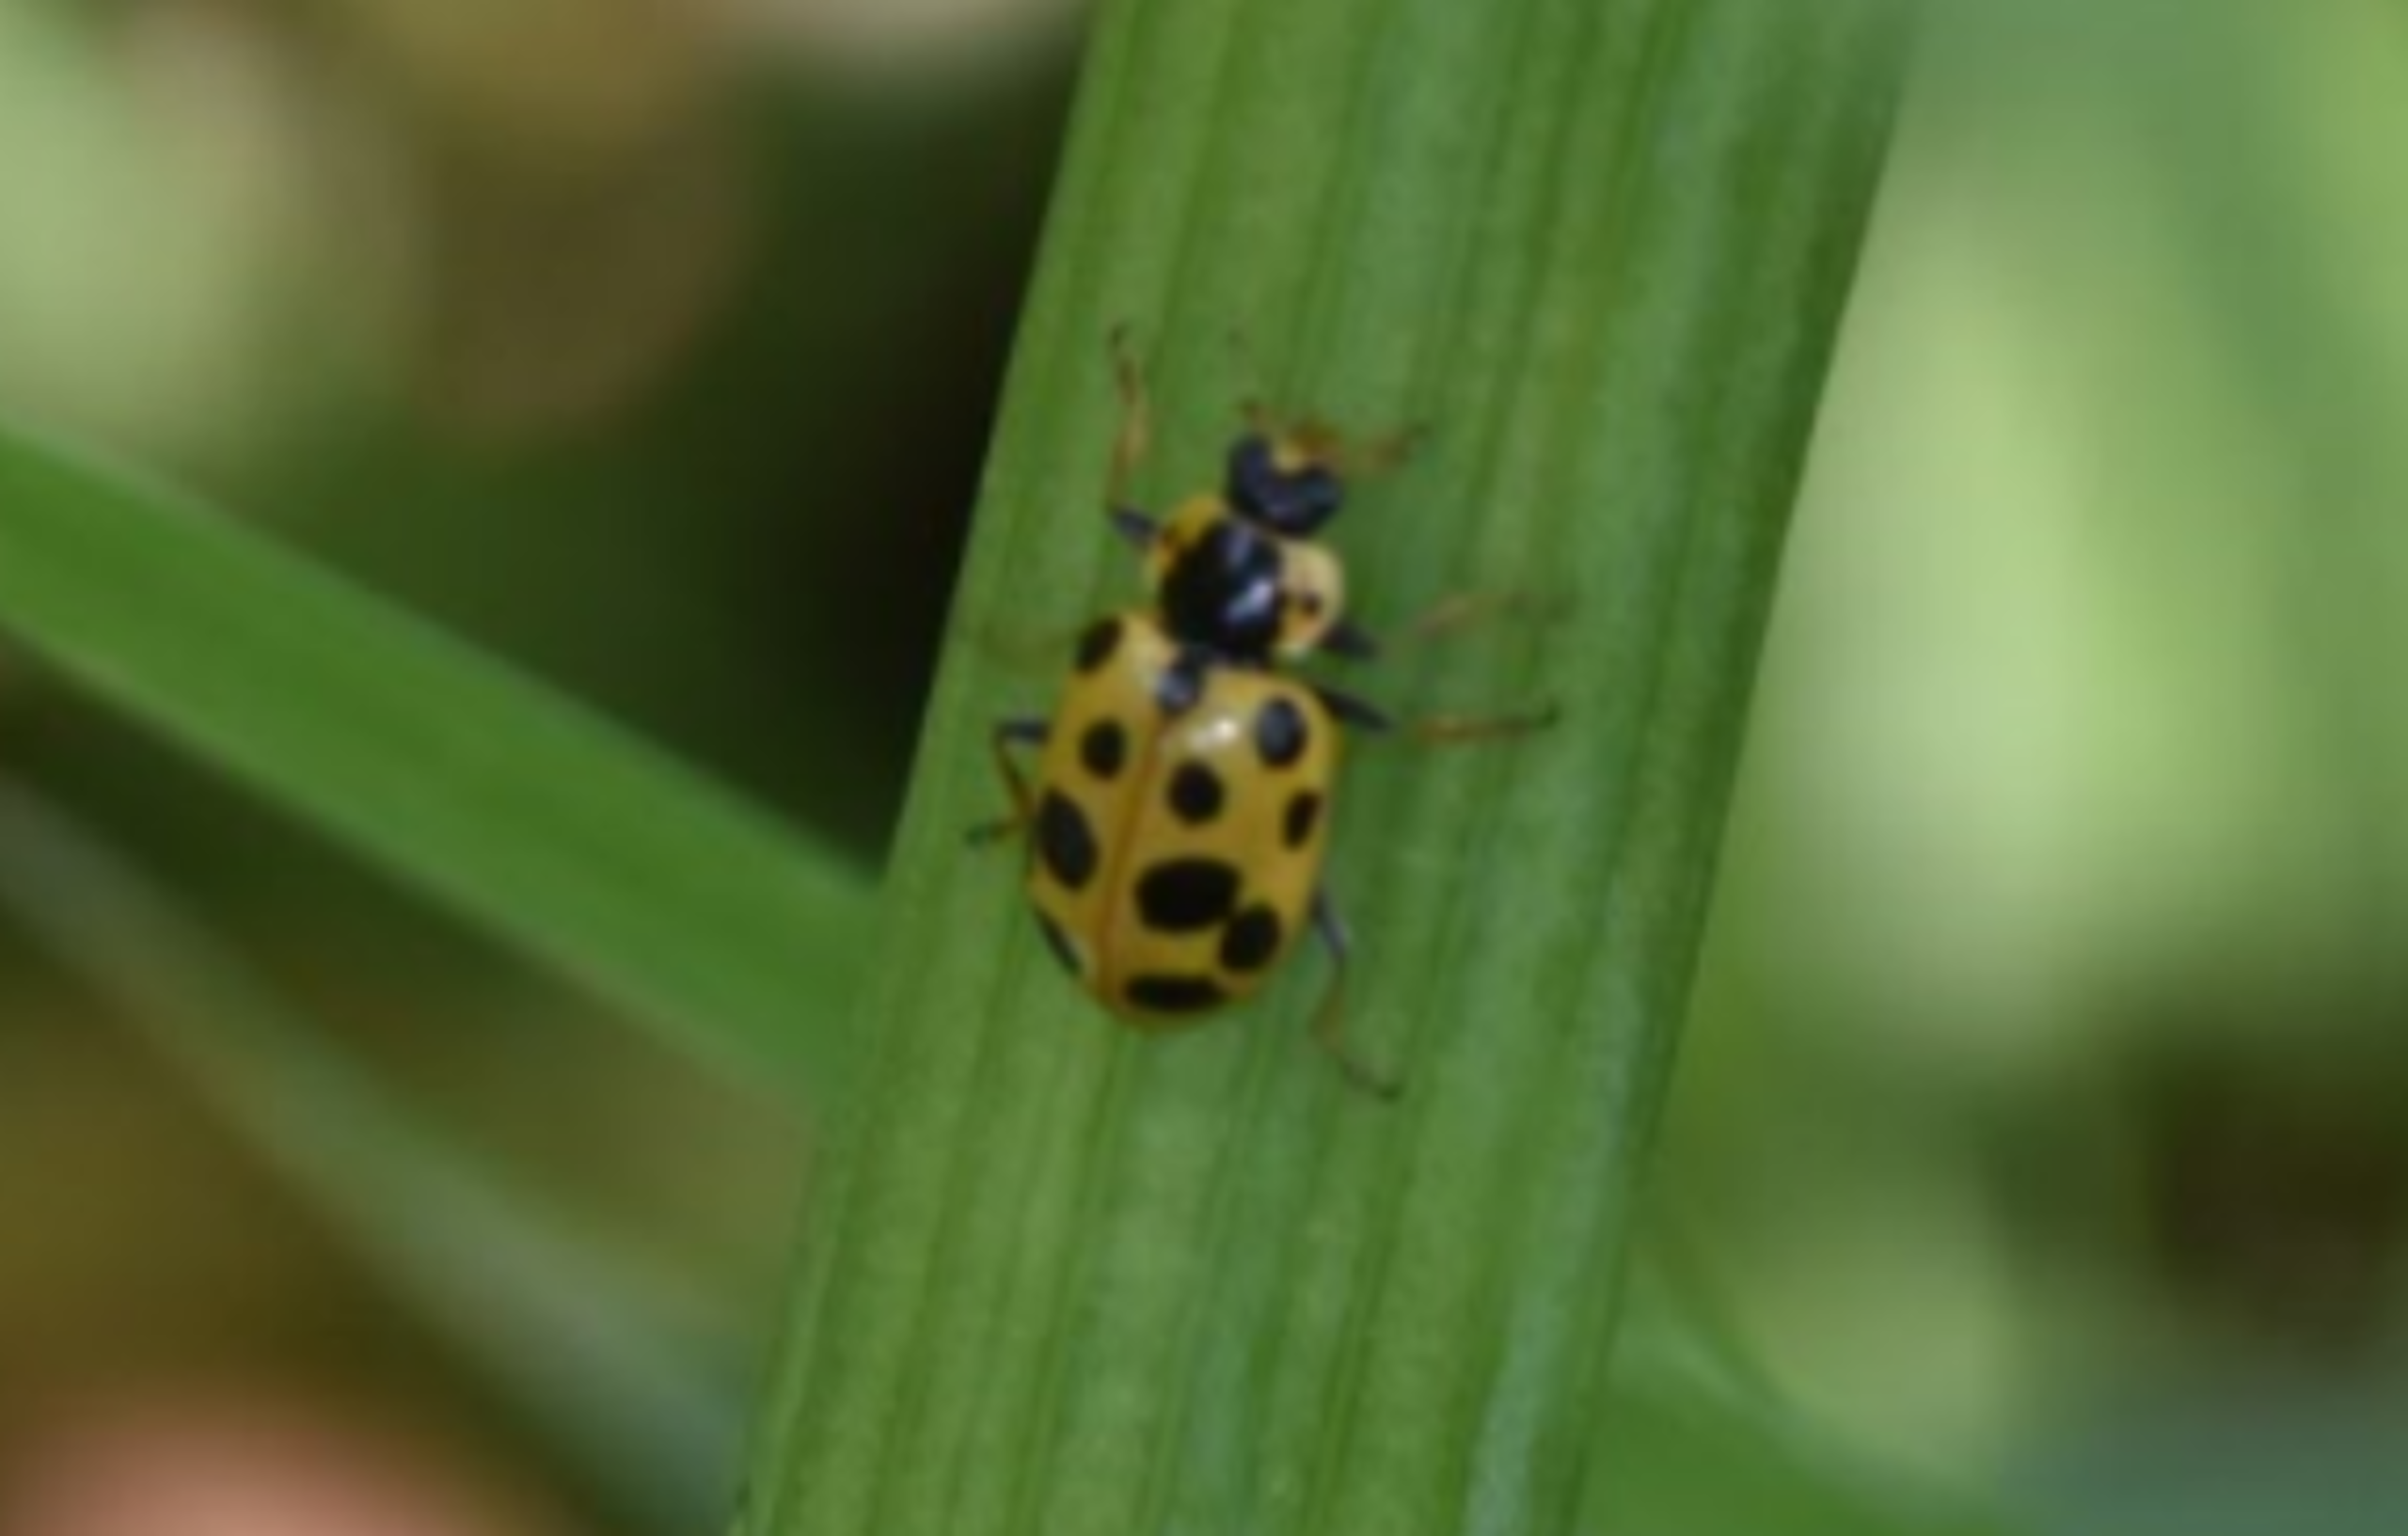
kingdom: Animalia
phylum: Arthropoda
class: Insecta
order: Coleoptera
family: Coccinellidae
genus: Hippodamia
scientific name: Hippodamia tredecimpunctata
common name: Trettenplettet mariehøne
